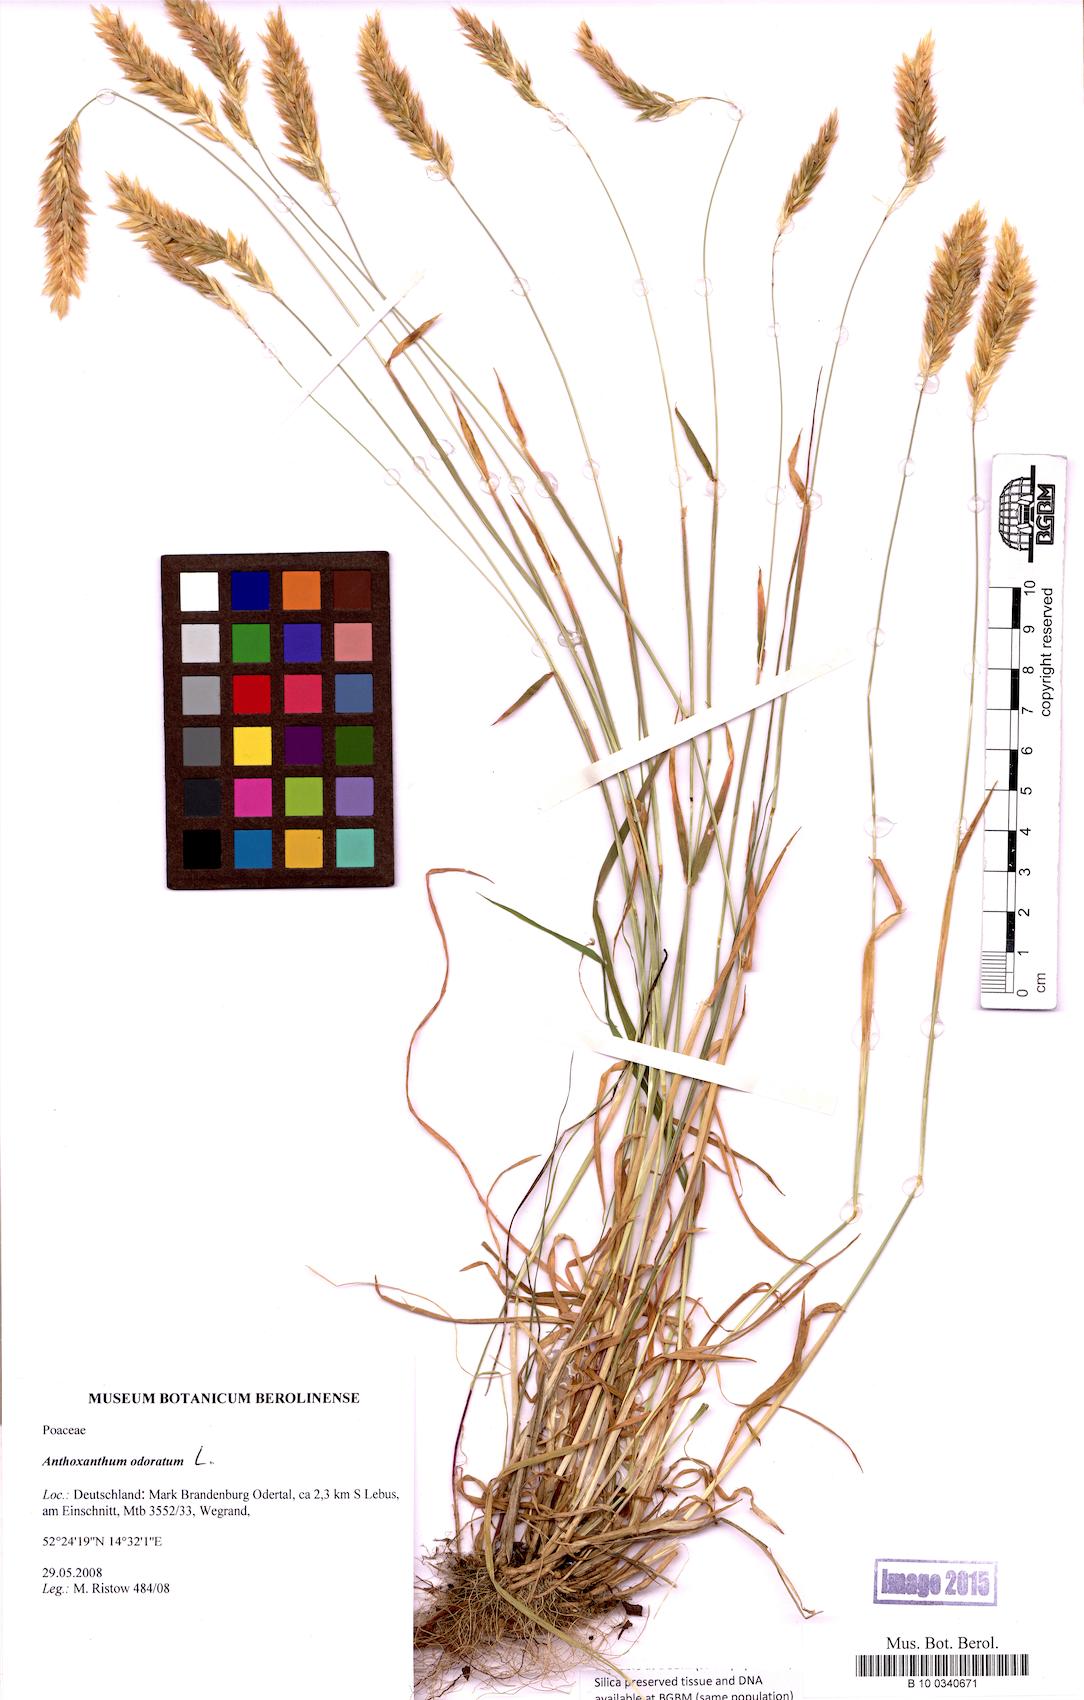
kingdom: Plantae
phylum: Tracheophyta
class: Liliopsida
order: Poales
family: Poaceae
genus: Anthoxanthum
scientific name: Anthoxanthum odoratum
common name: Sweet vernalgrass
